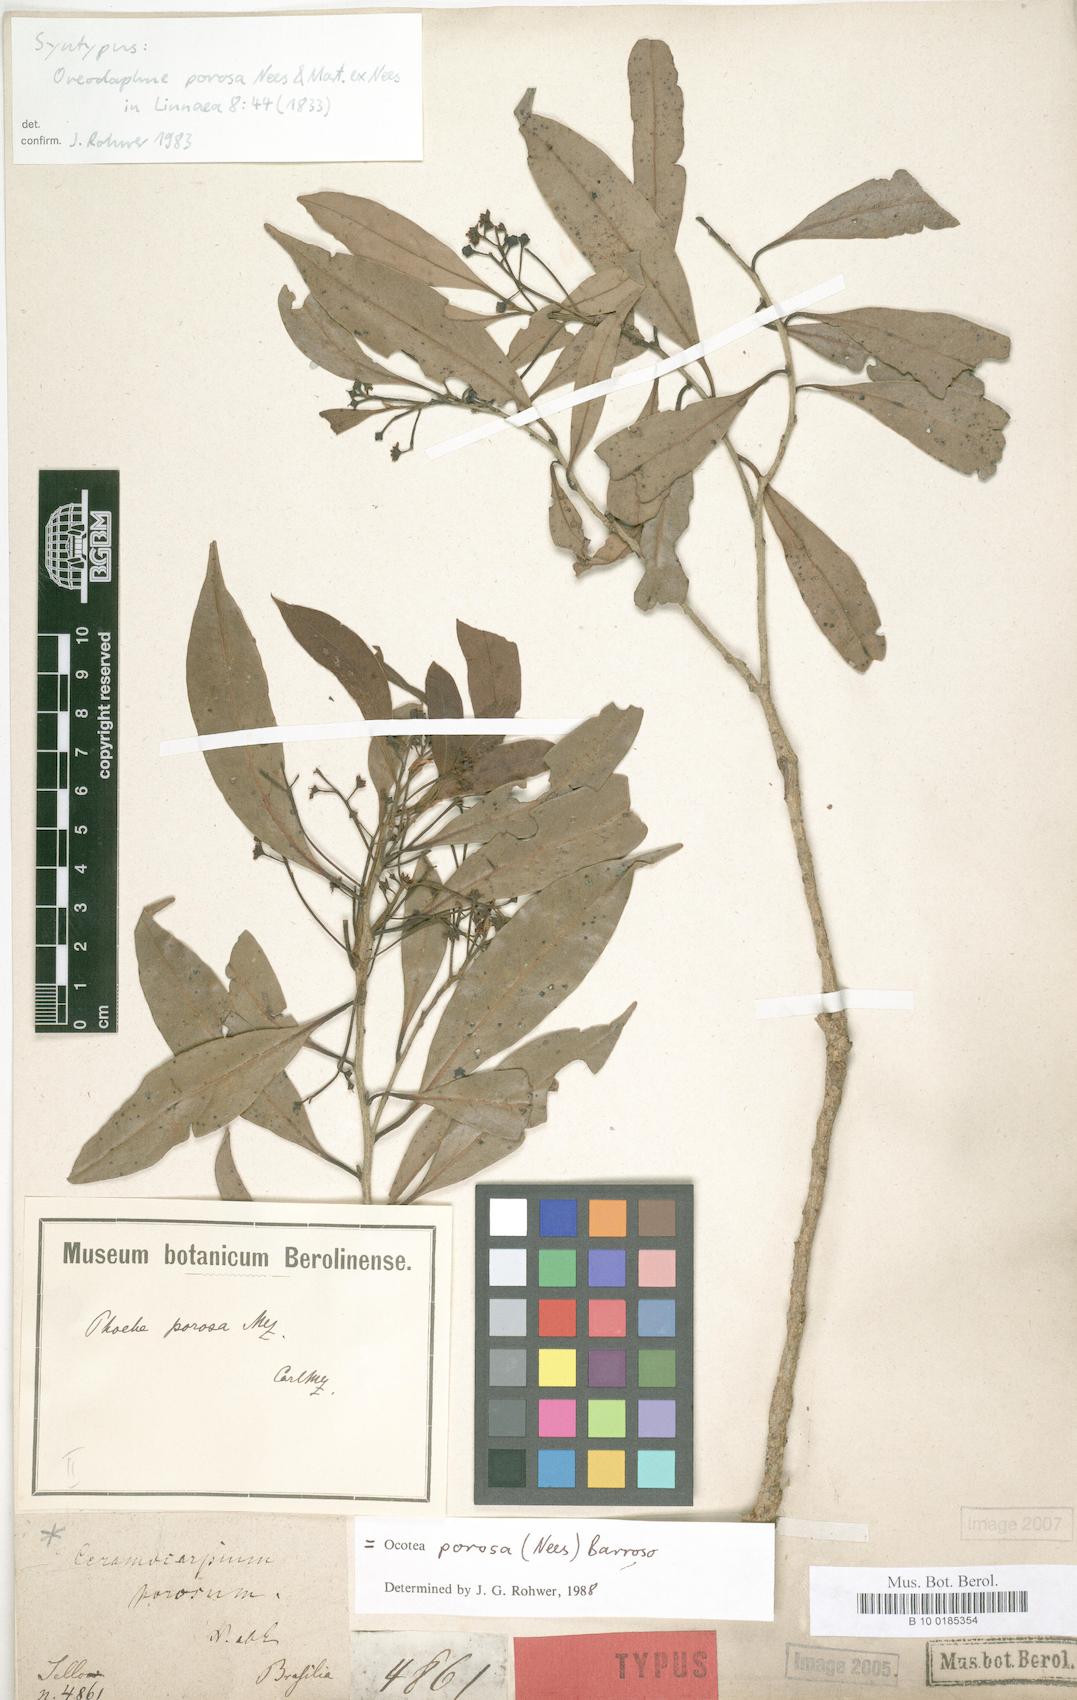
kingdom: Plantae
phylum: Tracheophyta
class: Magnoliopsida
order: Laurales
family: Lauraceae
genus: Ocotea
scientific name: Ocotea porosa
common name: Brazilian-walnut
